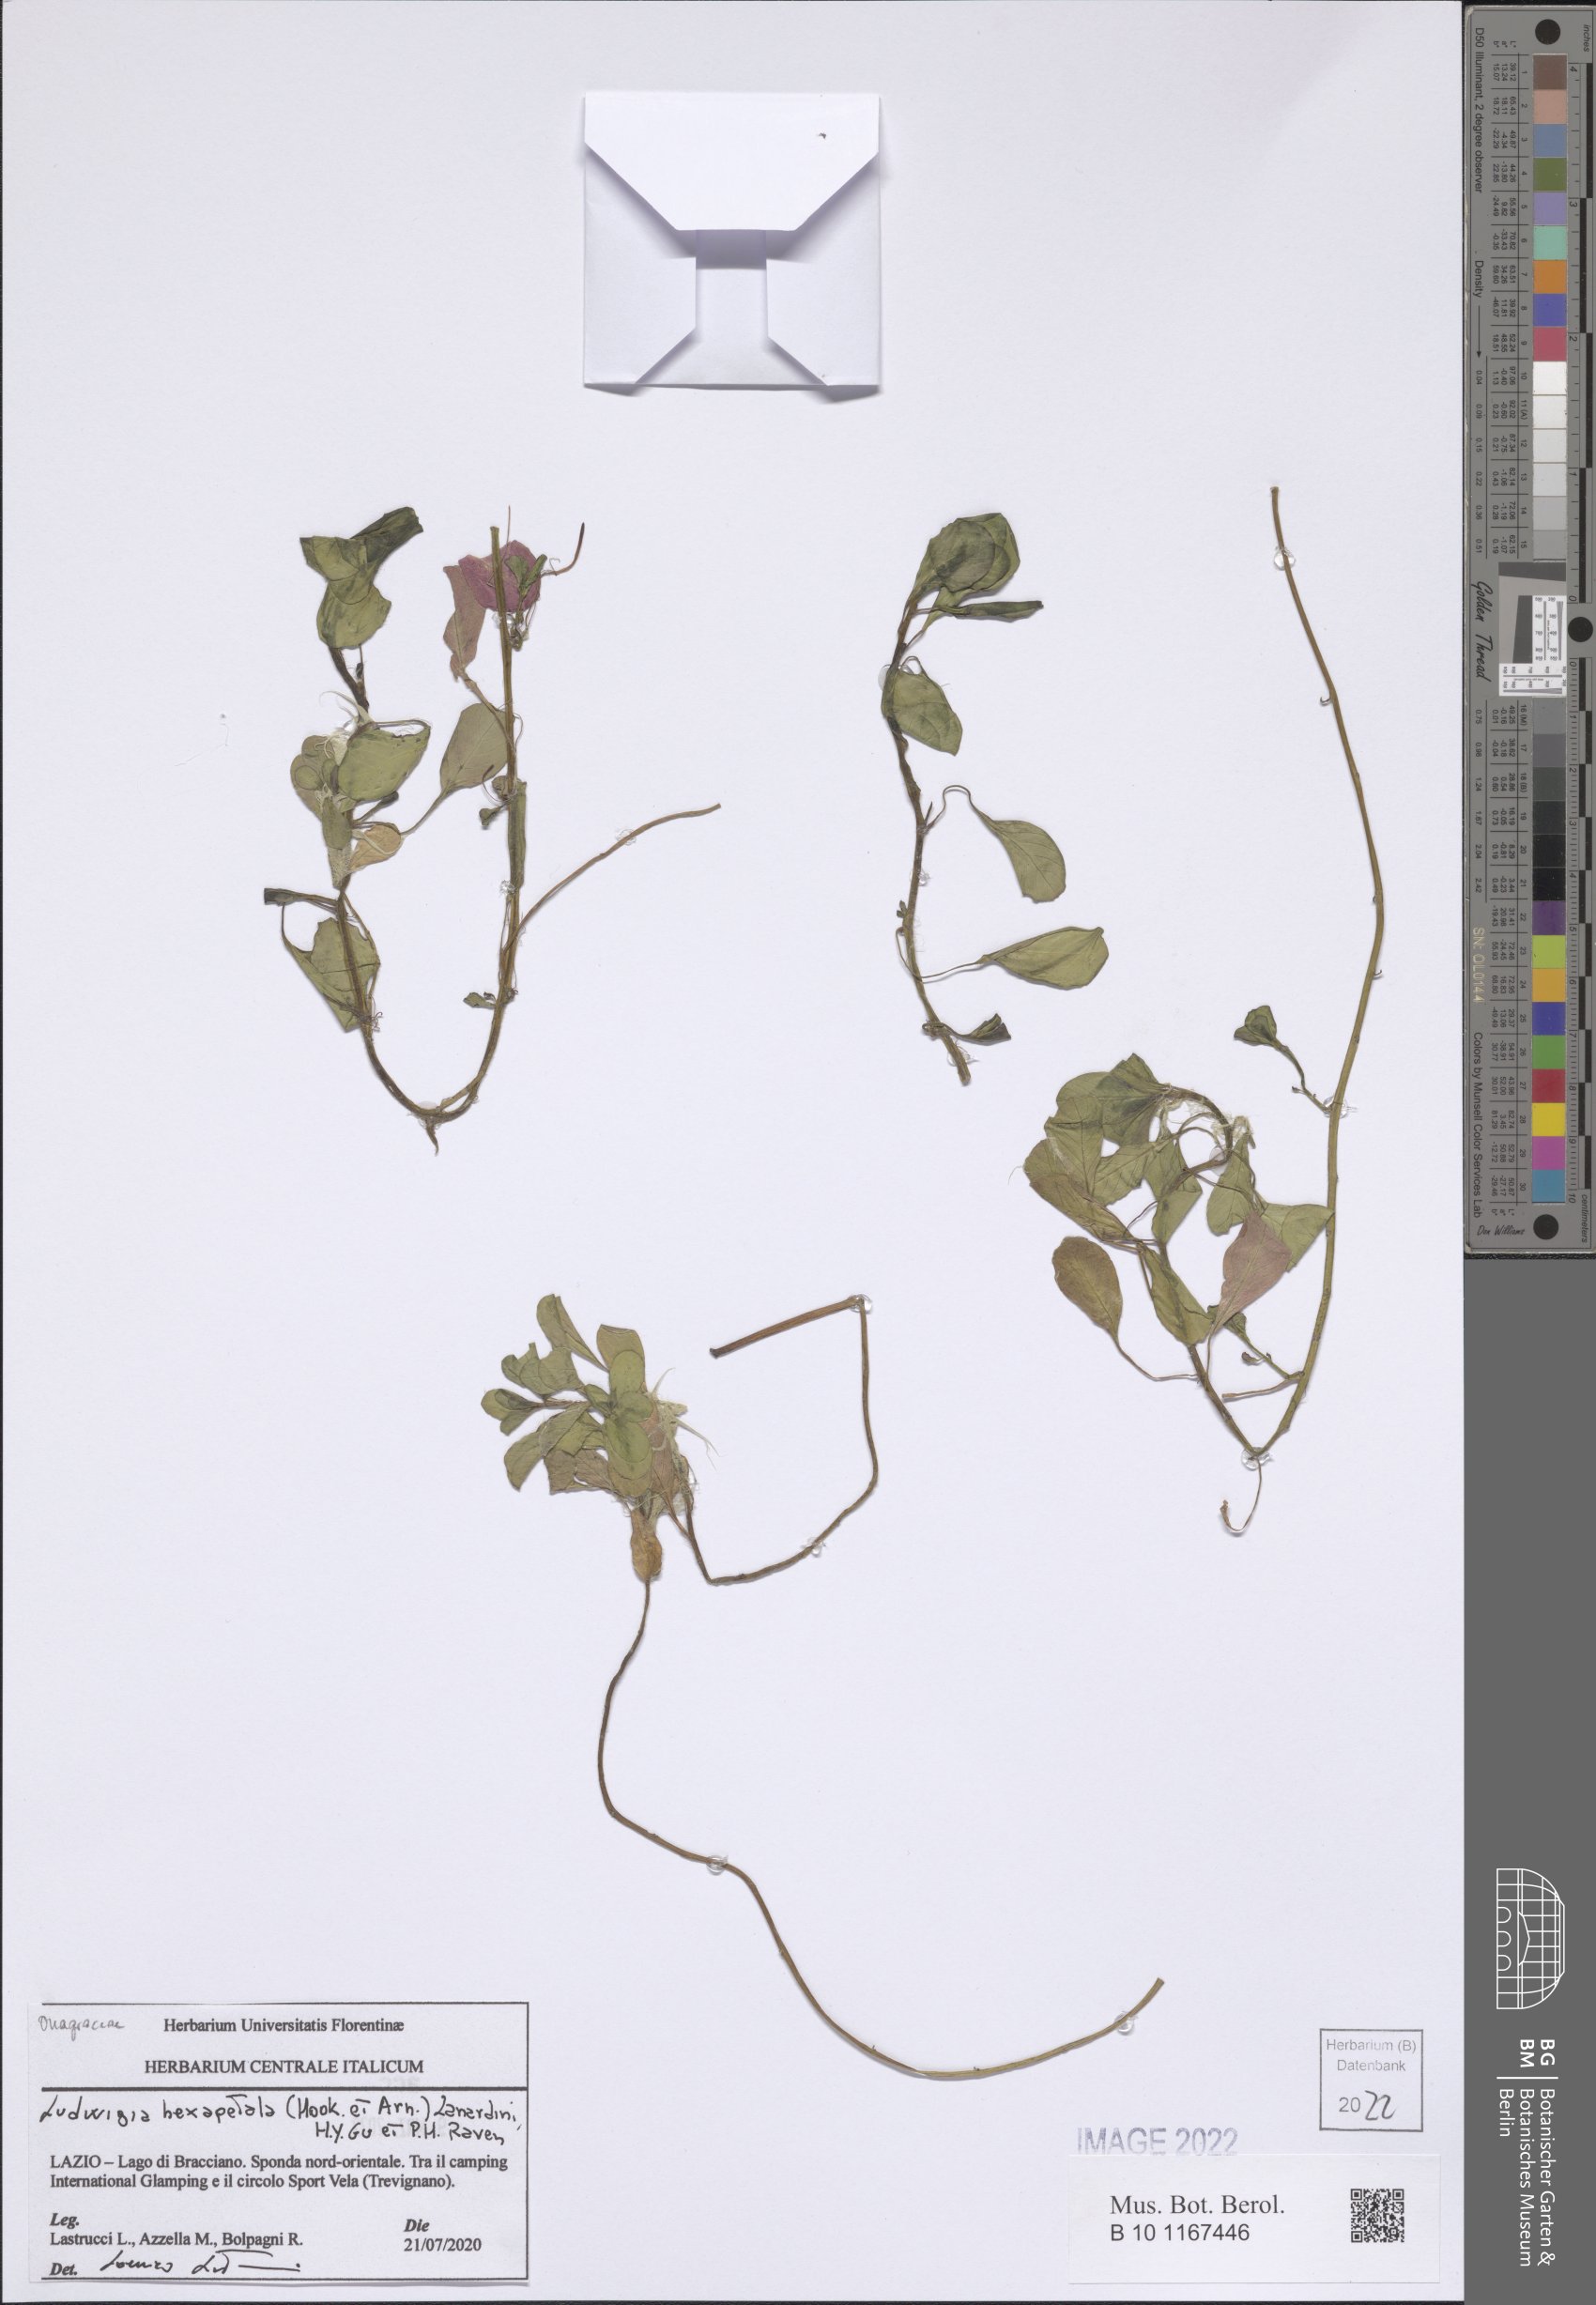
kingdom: Plantae
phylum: Tracheophyta
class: Magnoliopsida
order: Myrtales
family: Onagraceae
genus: Ludwigia
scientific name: Ludwigia hexapetala
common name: Water-primrose
